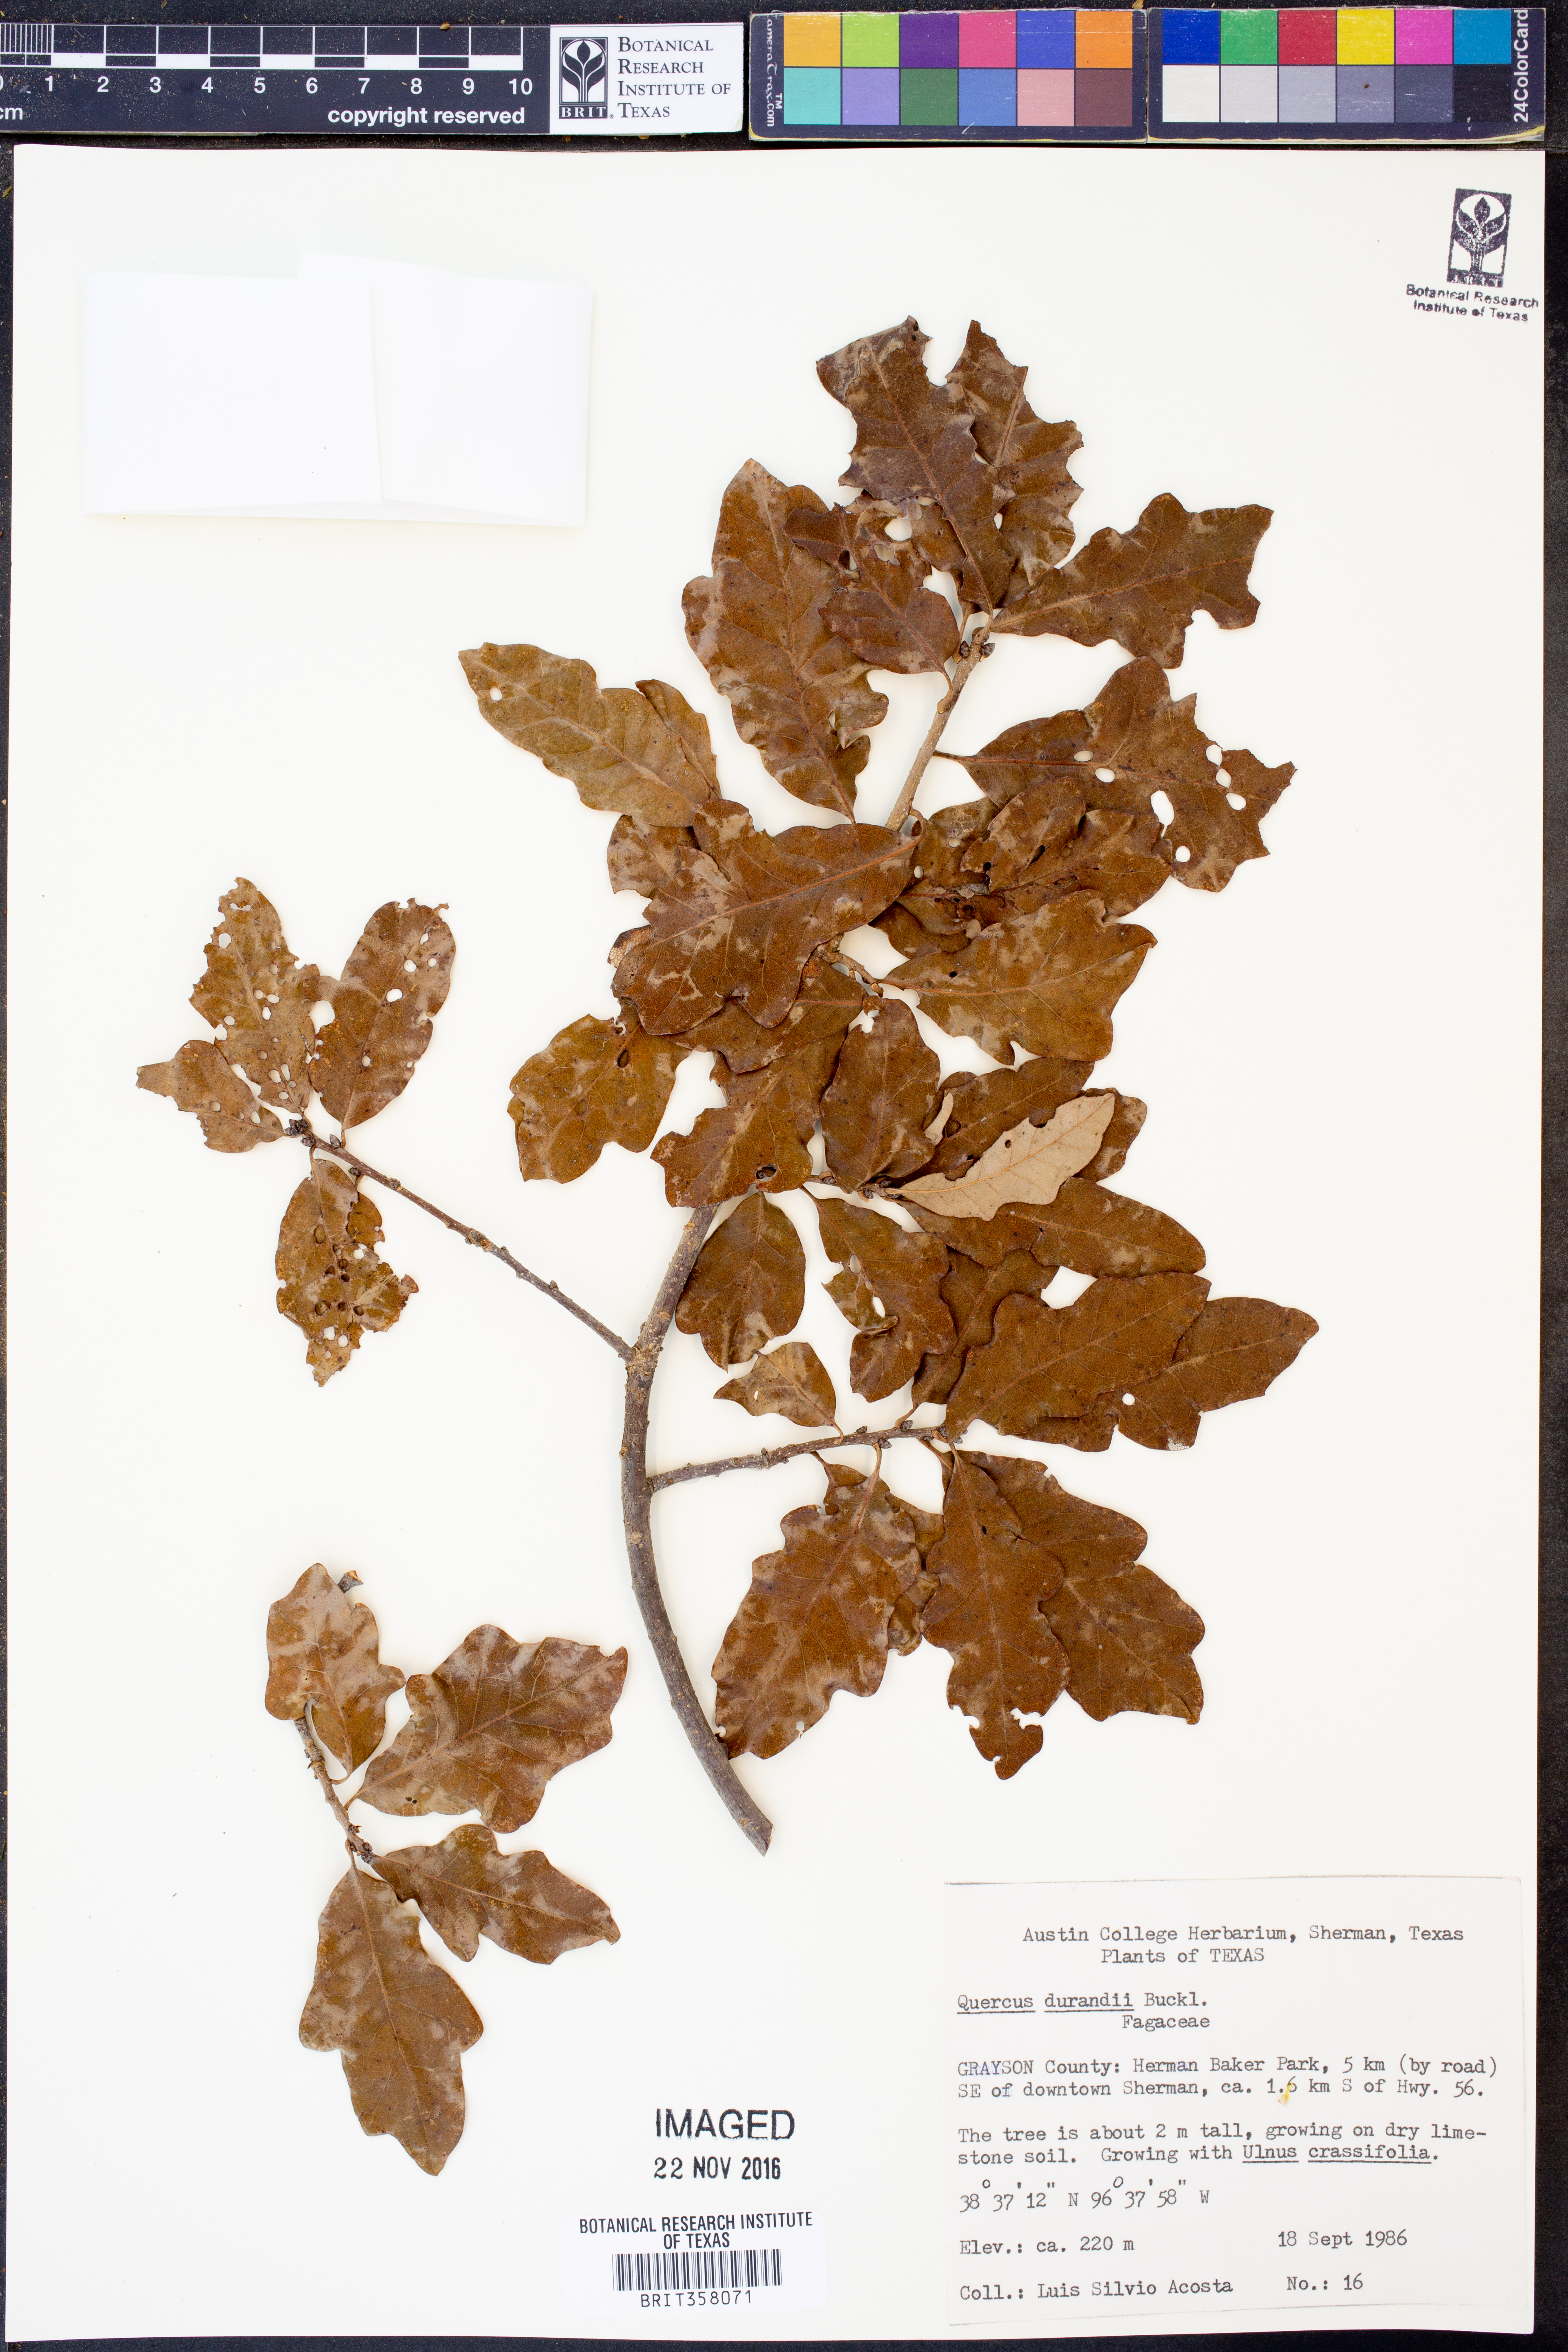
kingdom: Plantae
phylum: Tracheophyta
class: Magnoliopsida
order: Fagales
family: Fagaceae
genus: Quercus
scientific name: Quercus sinuata
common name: Durand oak
